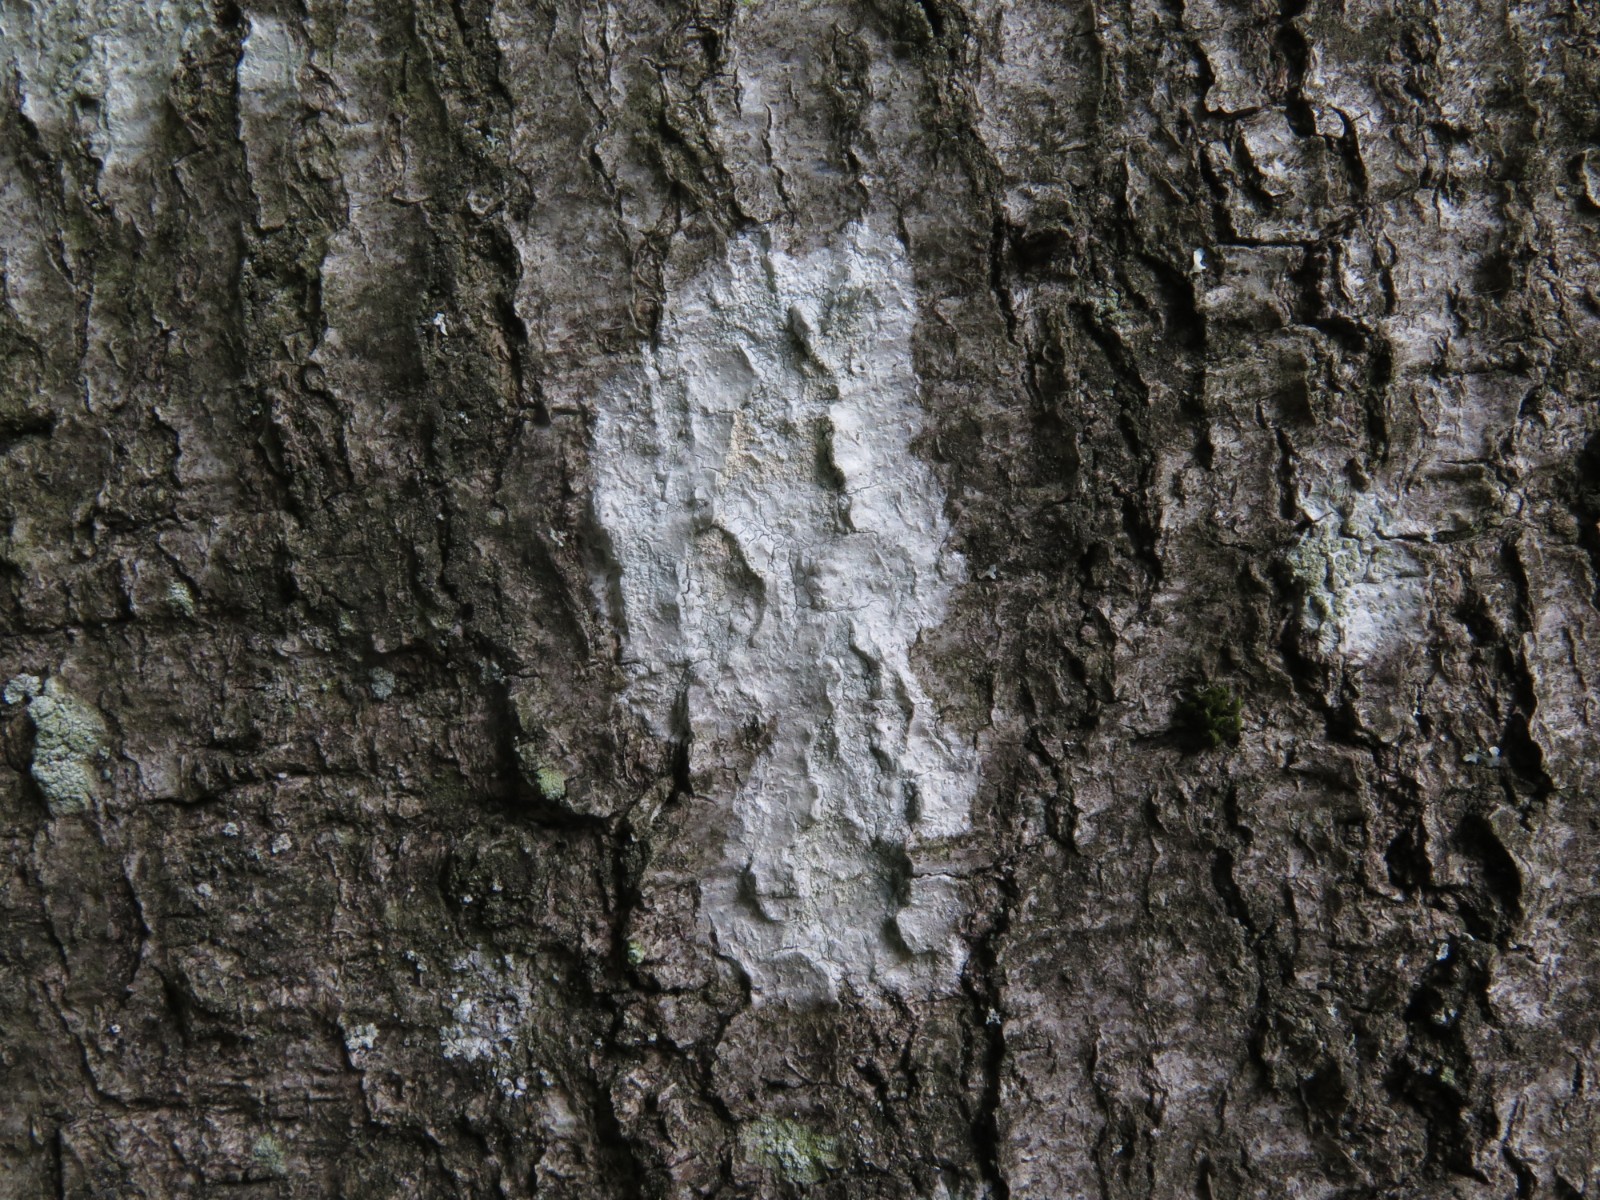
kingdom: Fungi
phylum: Ascomycota
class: Lecanoromycetes
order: Ostropales
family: Phlyctidaceae
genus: Phlyctis
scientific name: Phlyctis argena
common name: almindelig sølvlav
